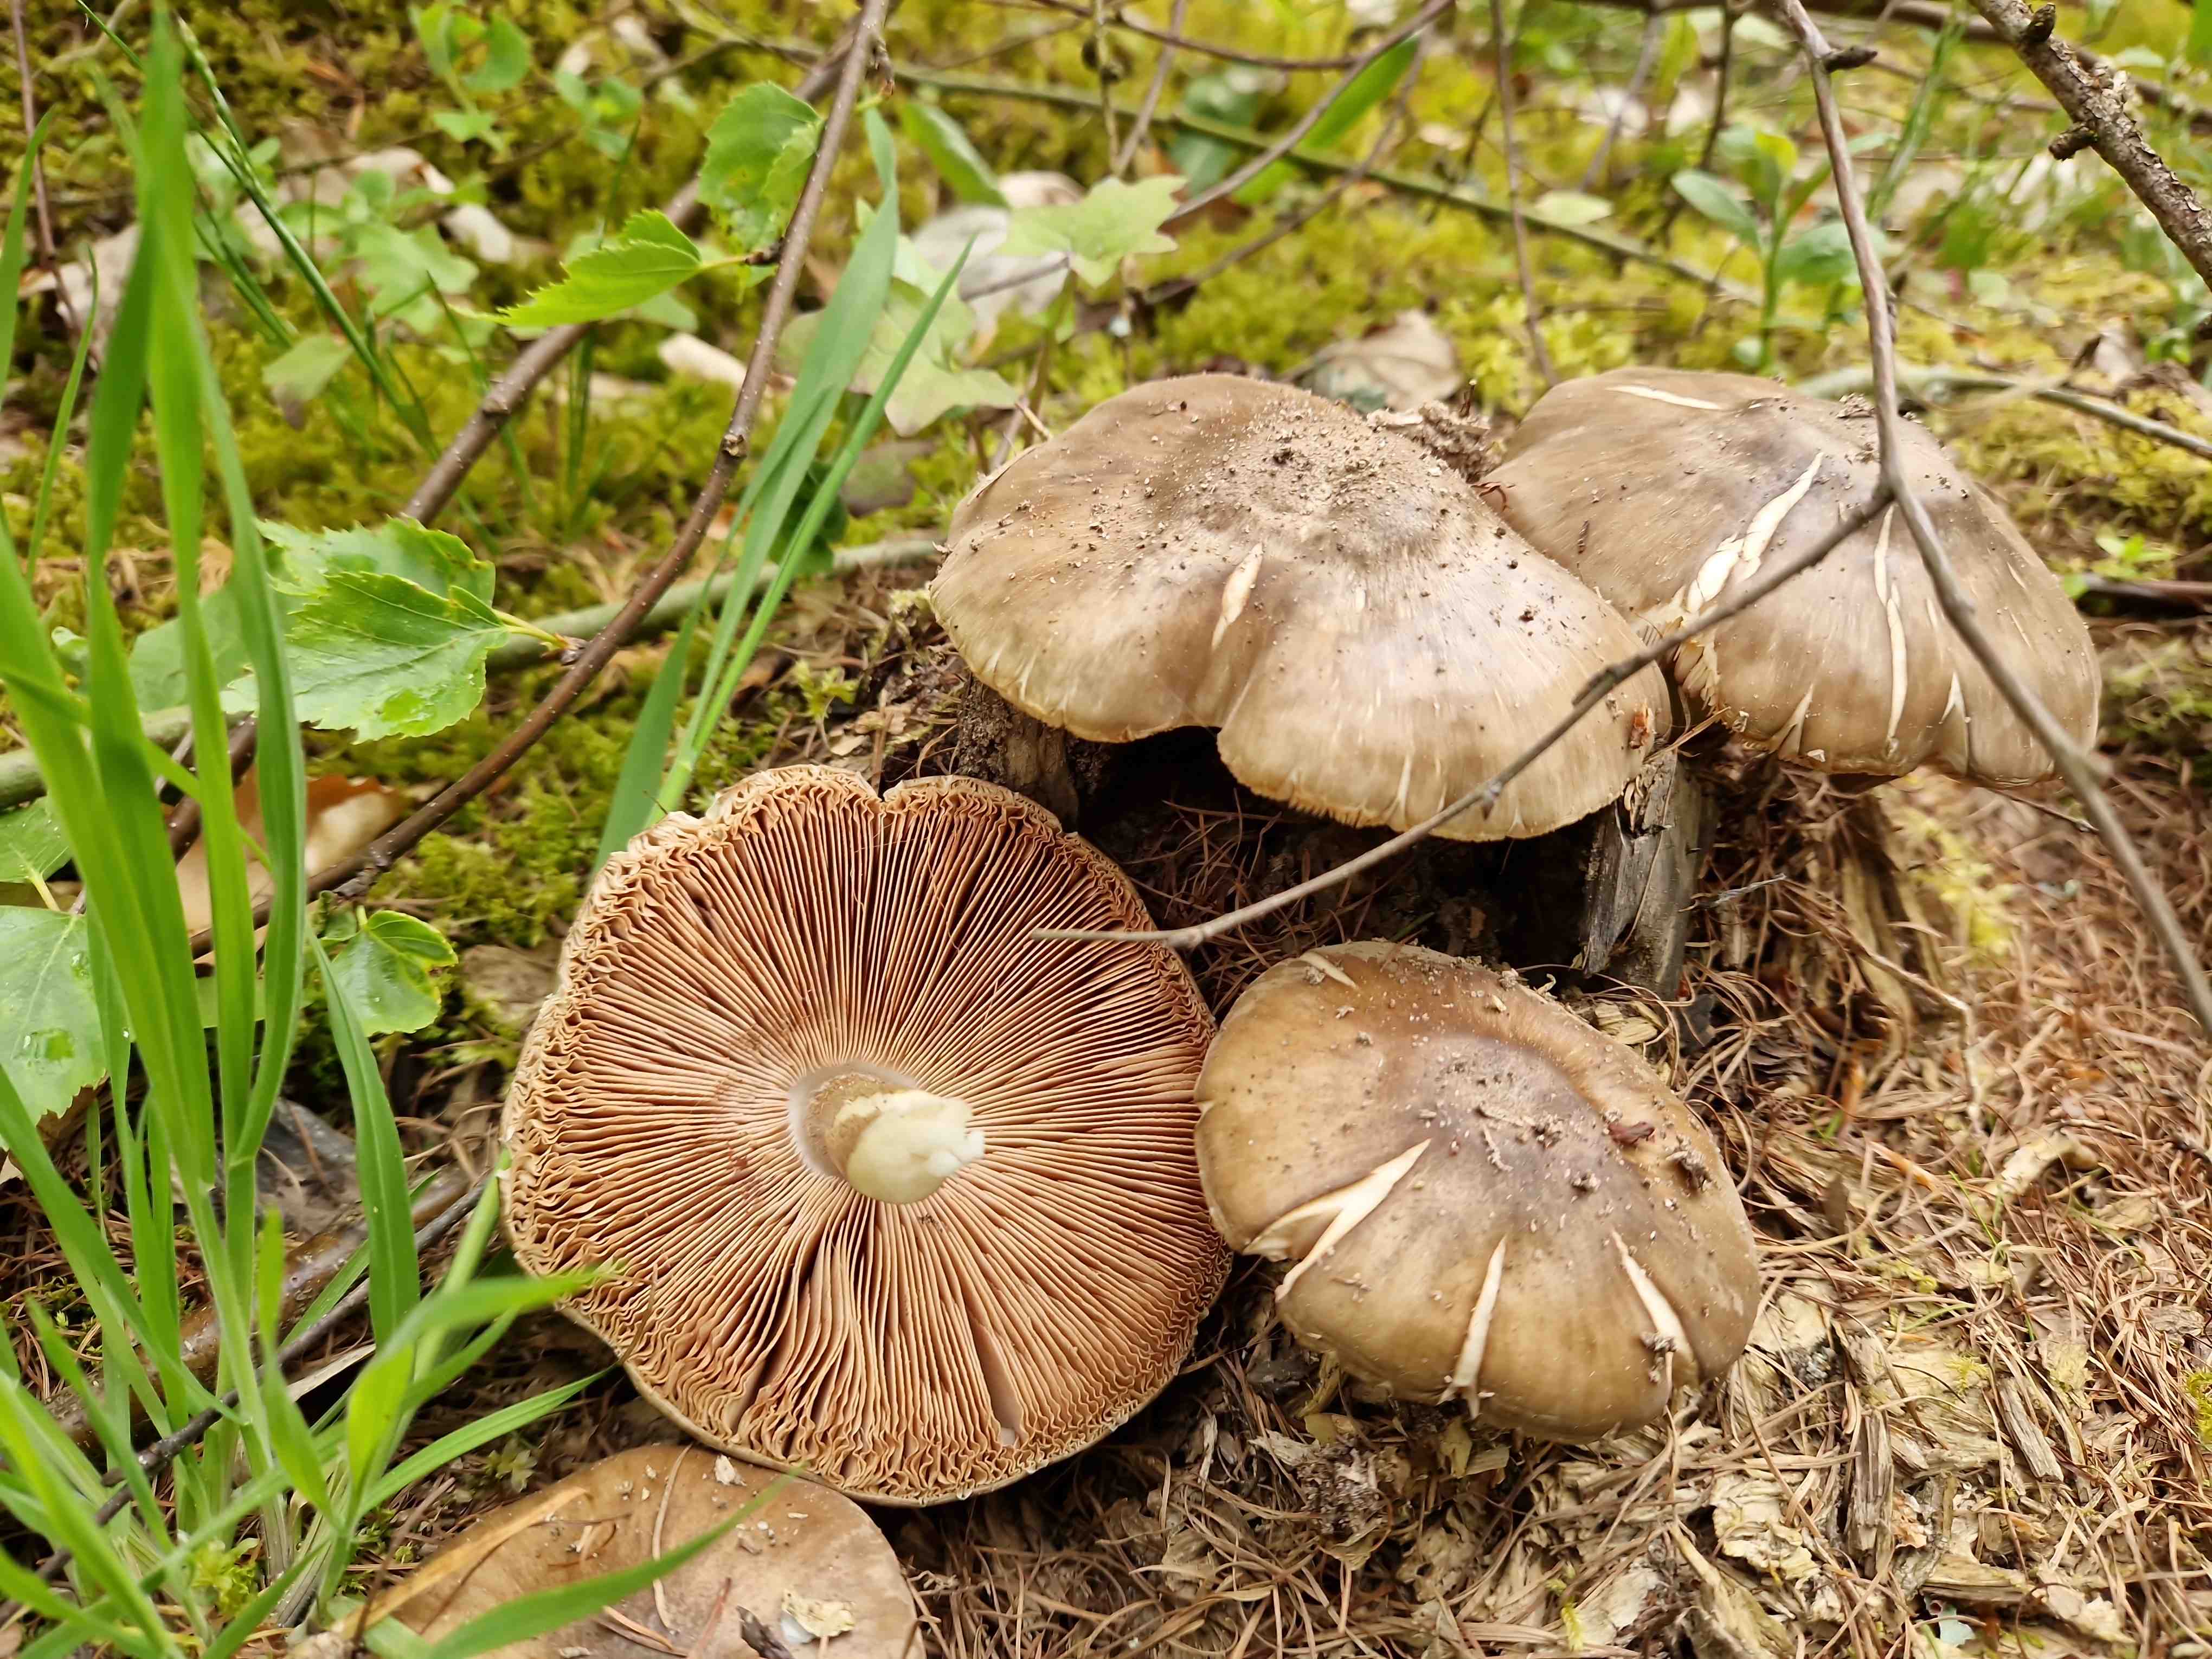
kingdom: Fungi
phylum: Basidiomycota
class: Agaricomycetes
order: Agaricales
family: Pluteaceae
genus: Pluteus
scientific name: Pluteus
